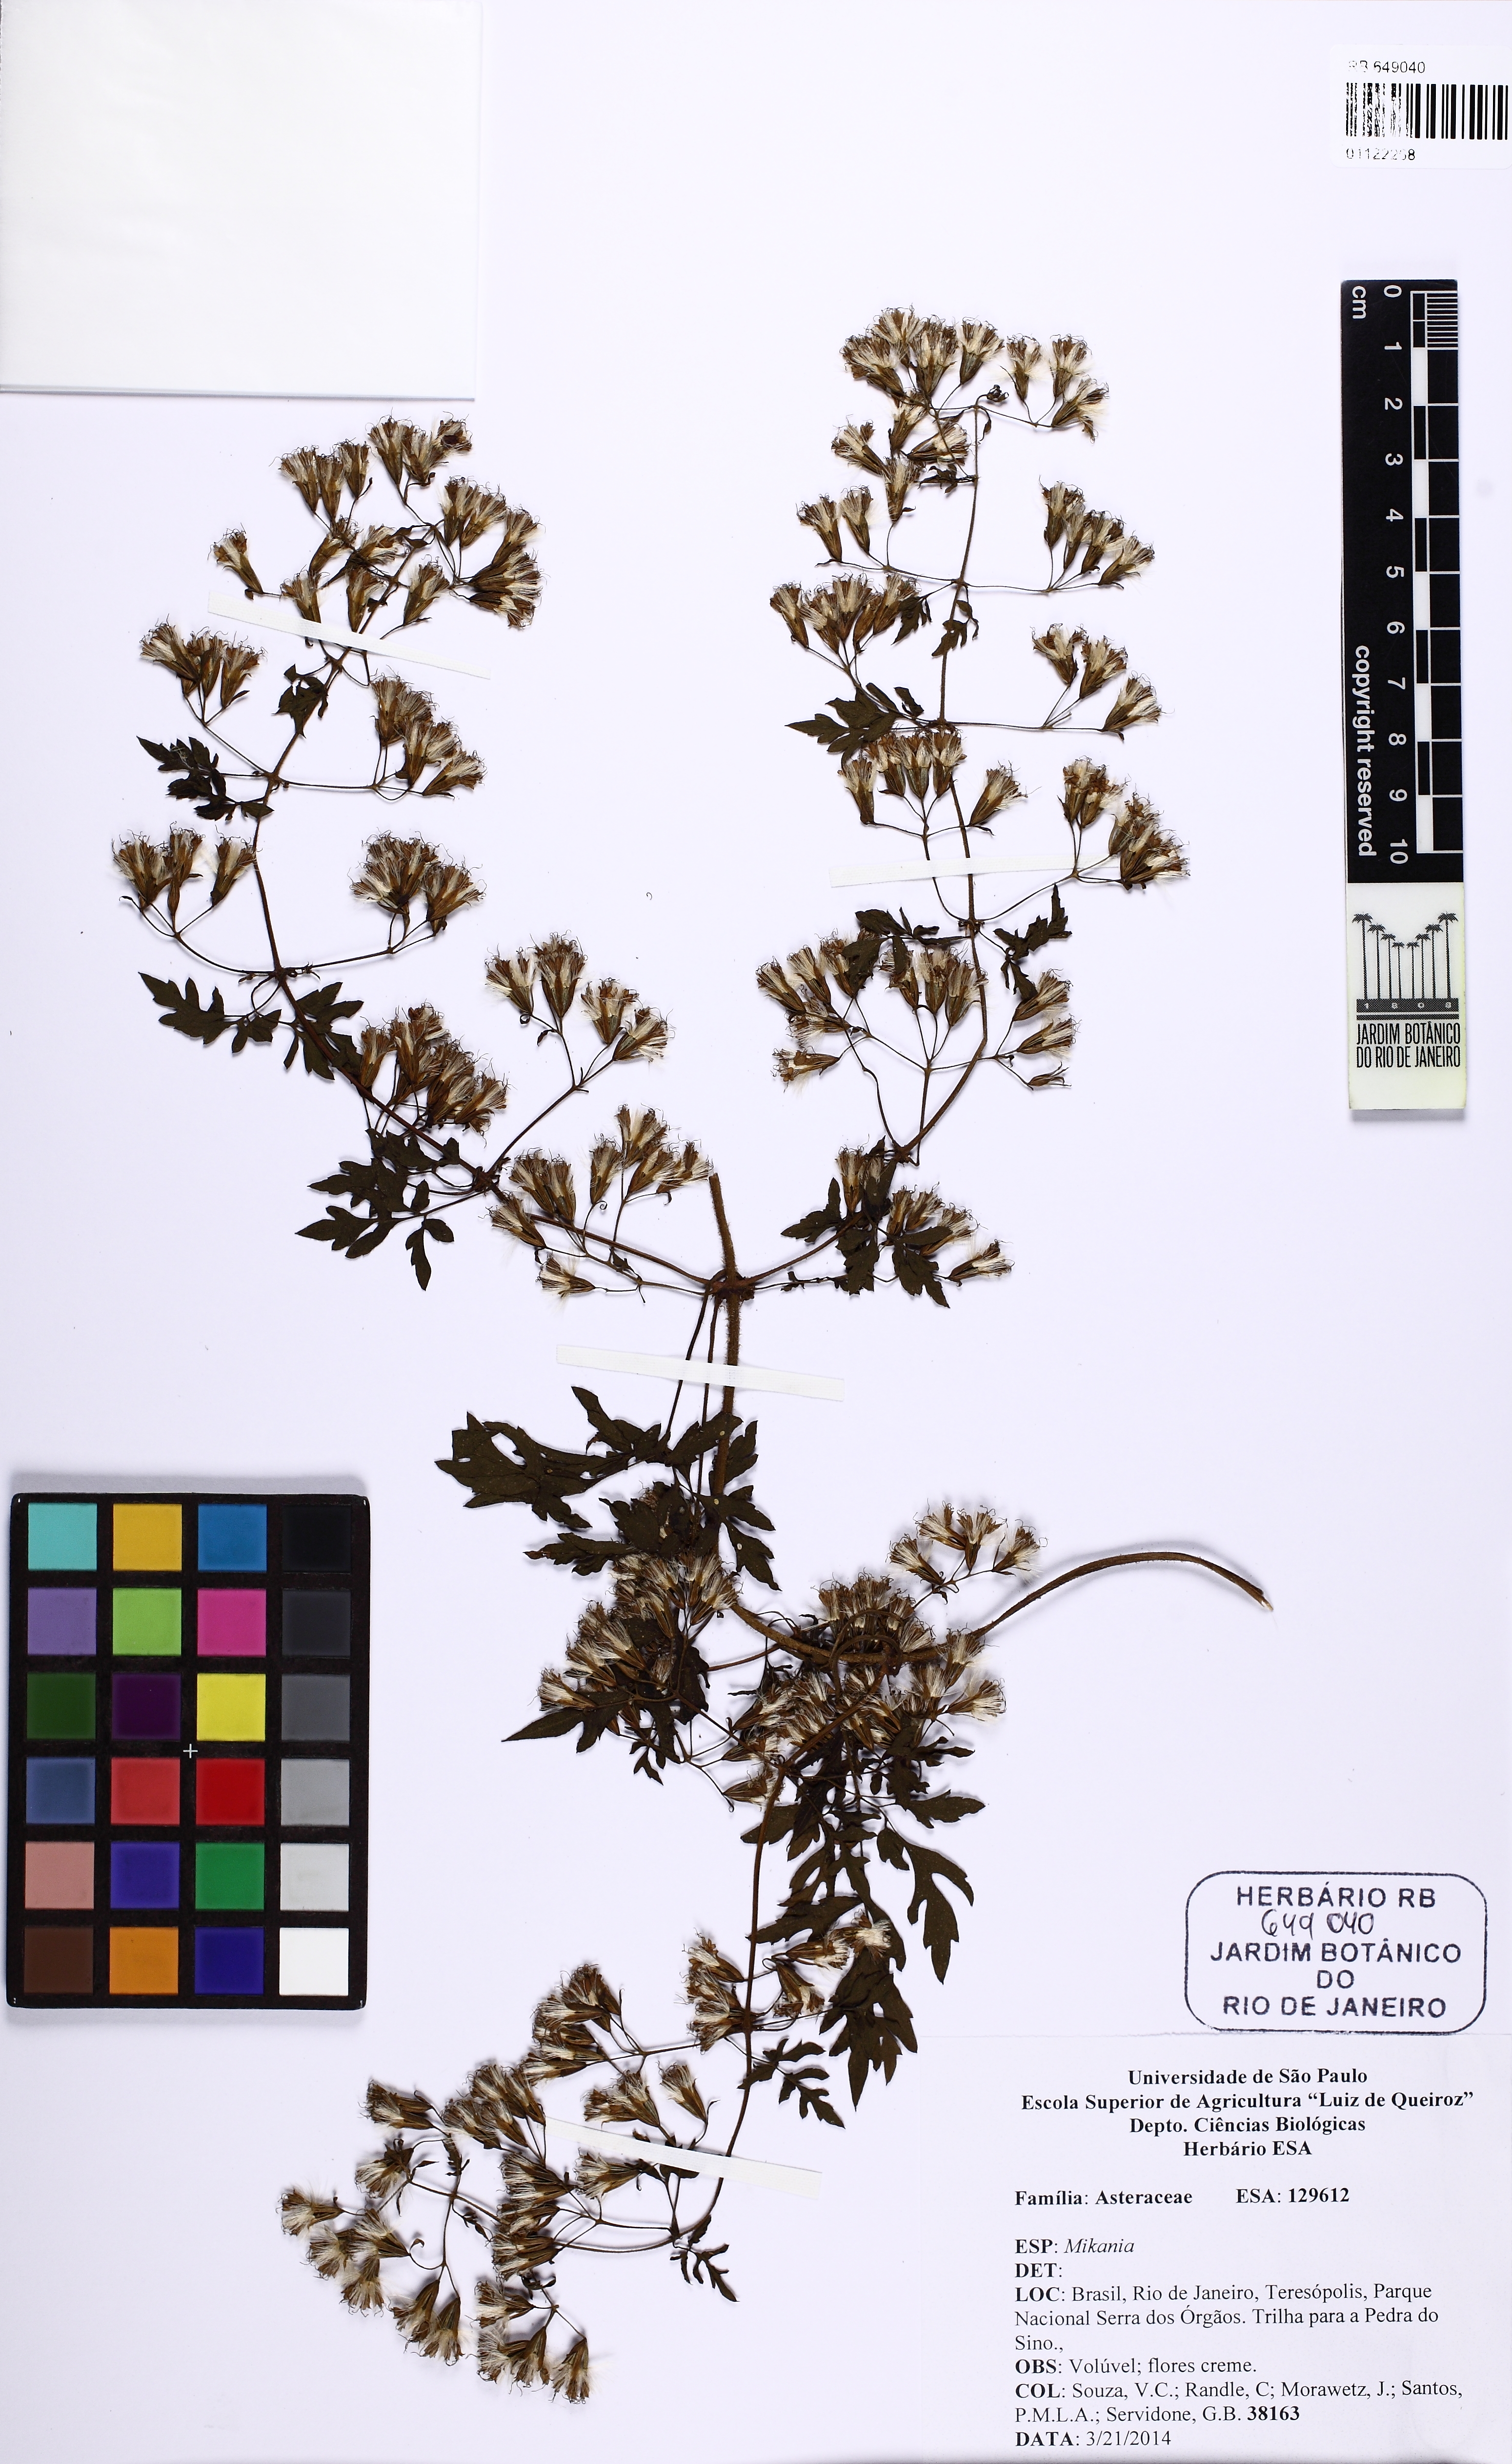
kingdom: Plantae
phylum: Tracheophyta
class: Magnoliopsida
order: Asterales
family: Asteraceae
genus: Mikania
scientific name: Mikania ternata
